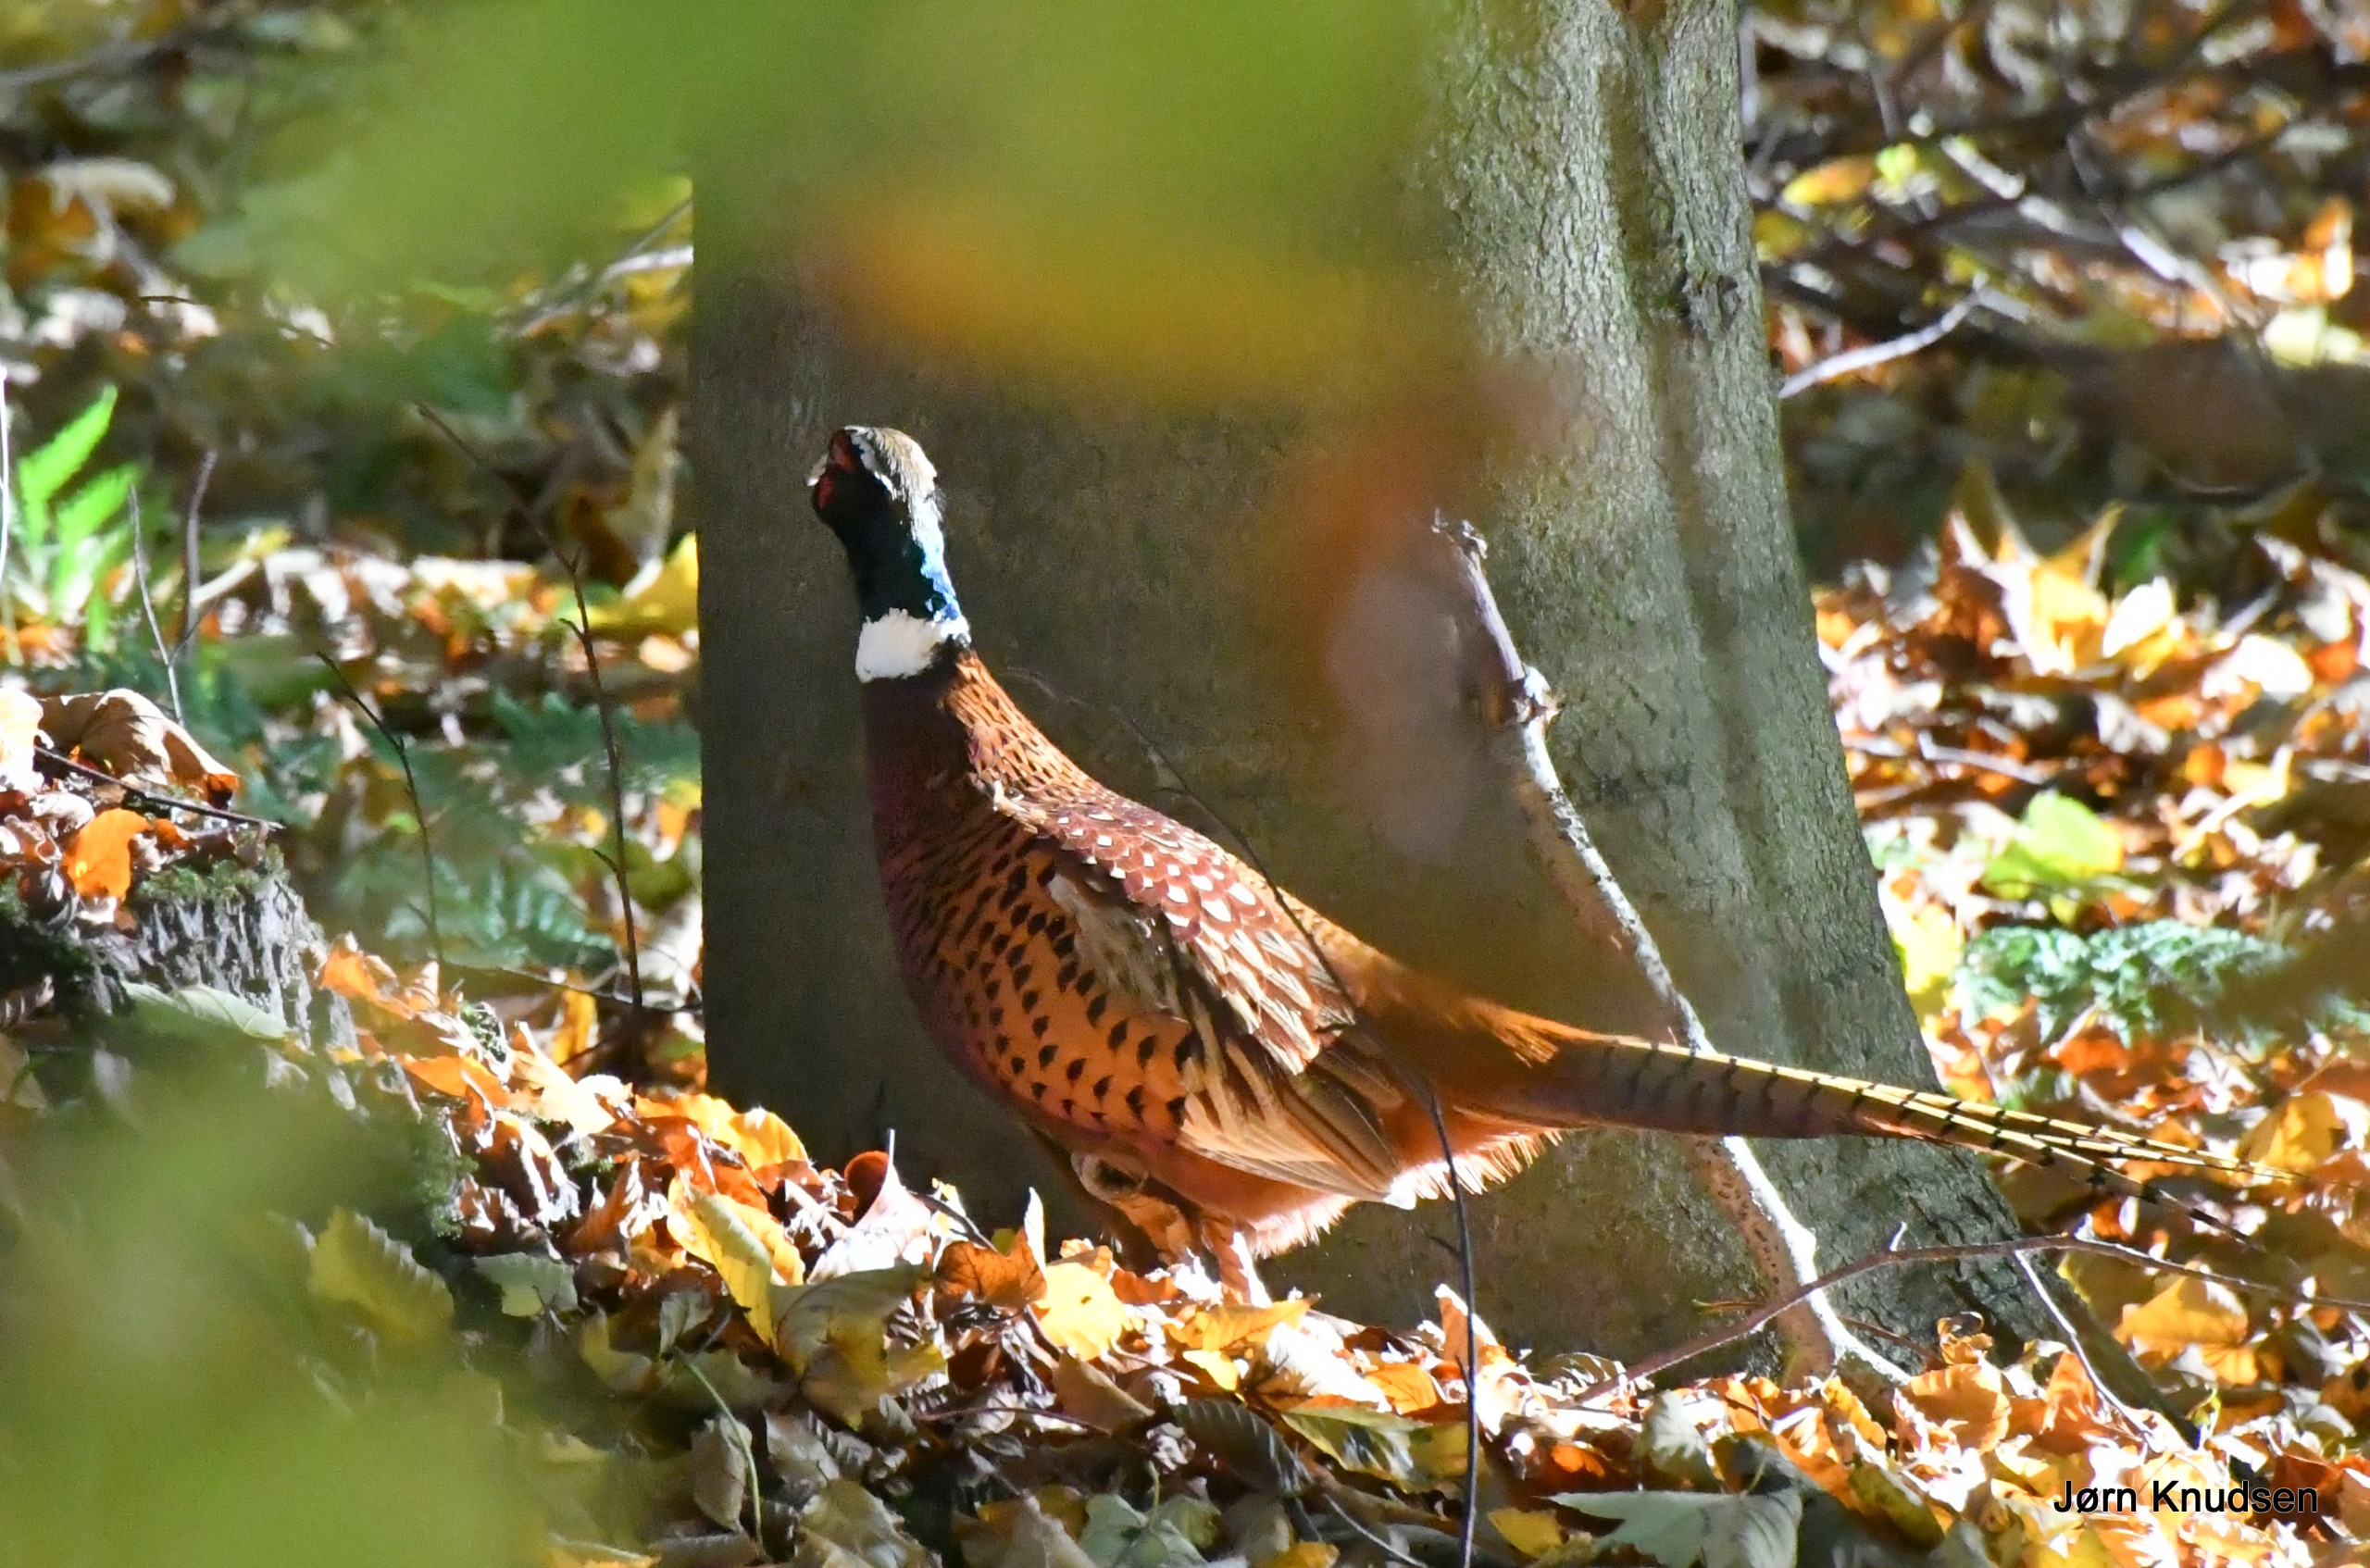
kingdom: Animalia
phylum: Chordata
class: Aves
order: Galliformes
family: Phasianidae
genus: Phasianus
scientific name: Phasianus colchicus
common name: Fasan
